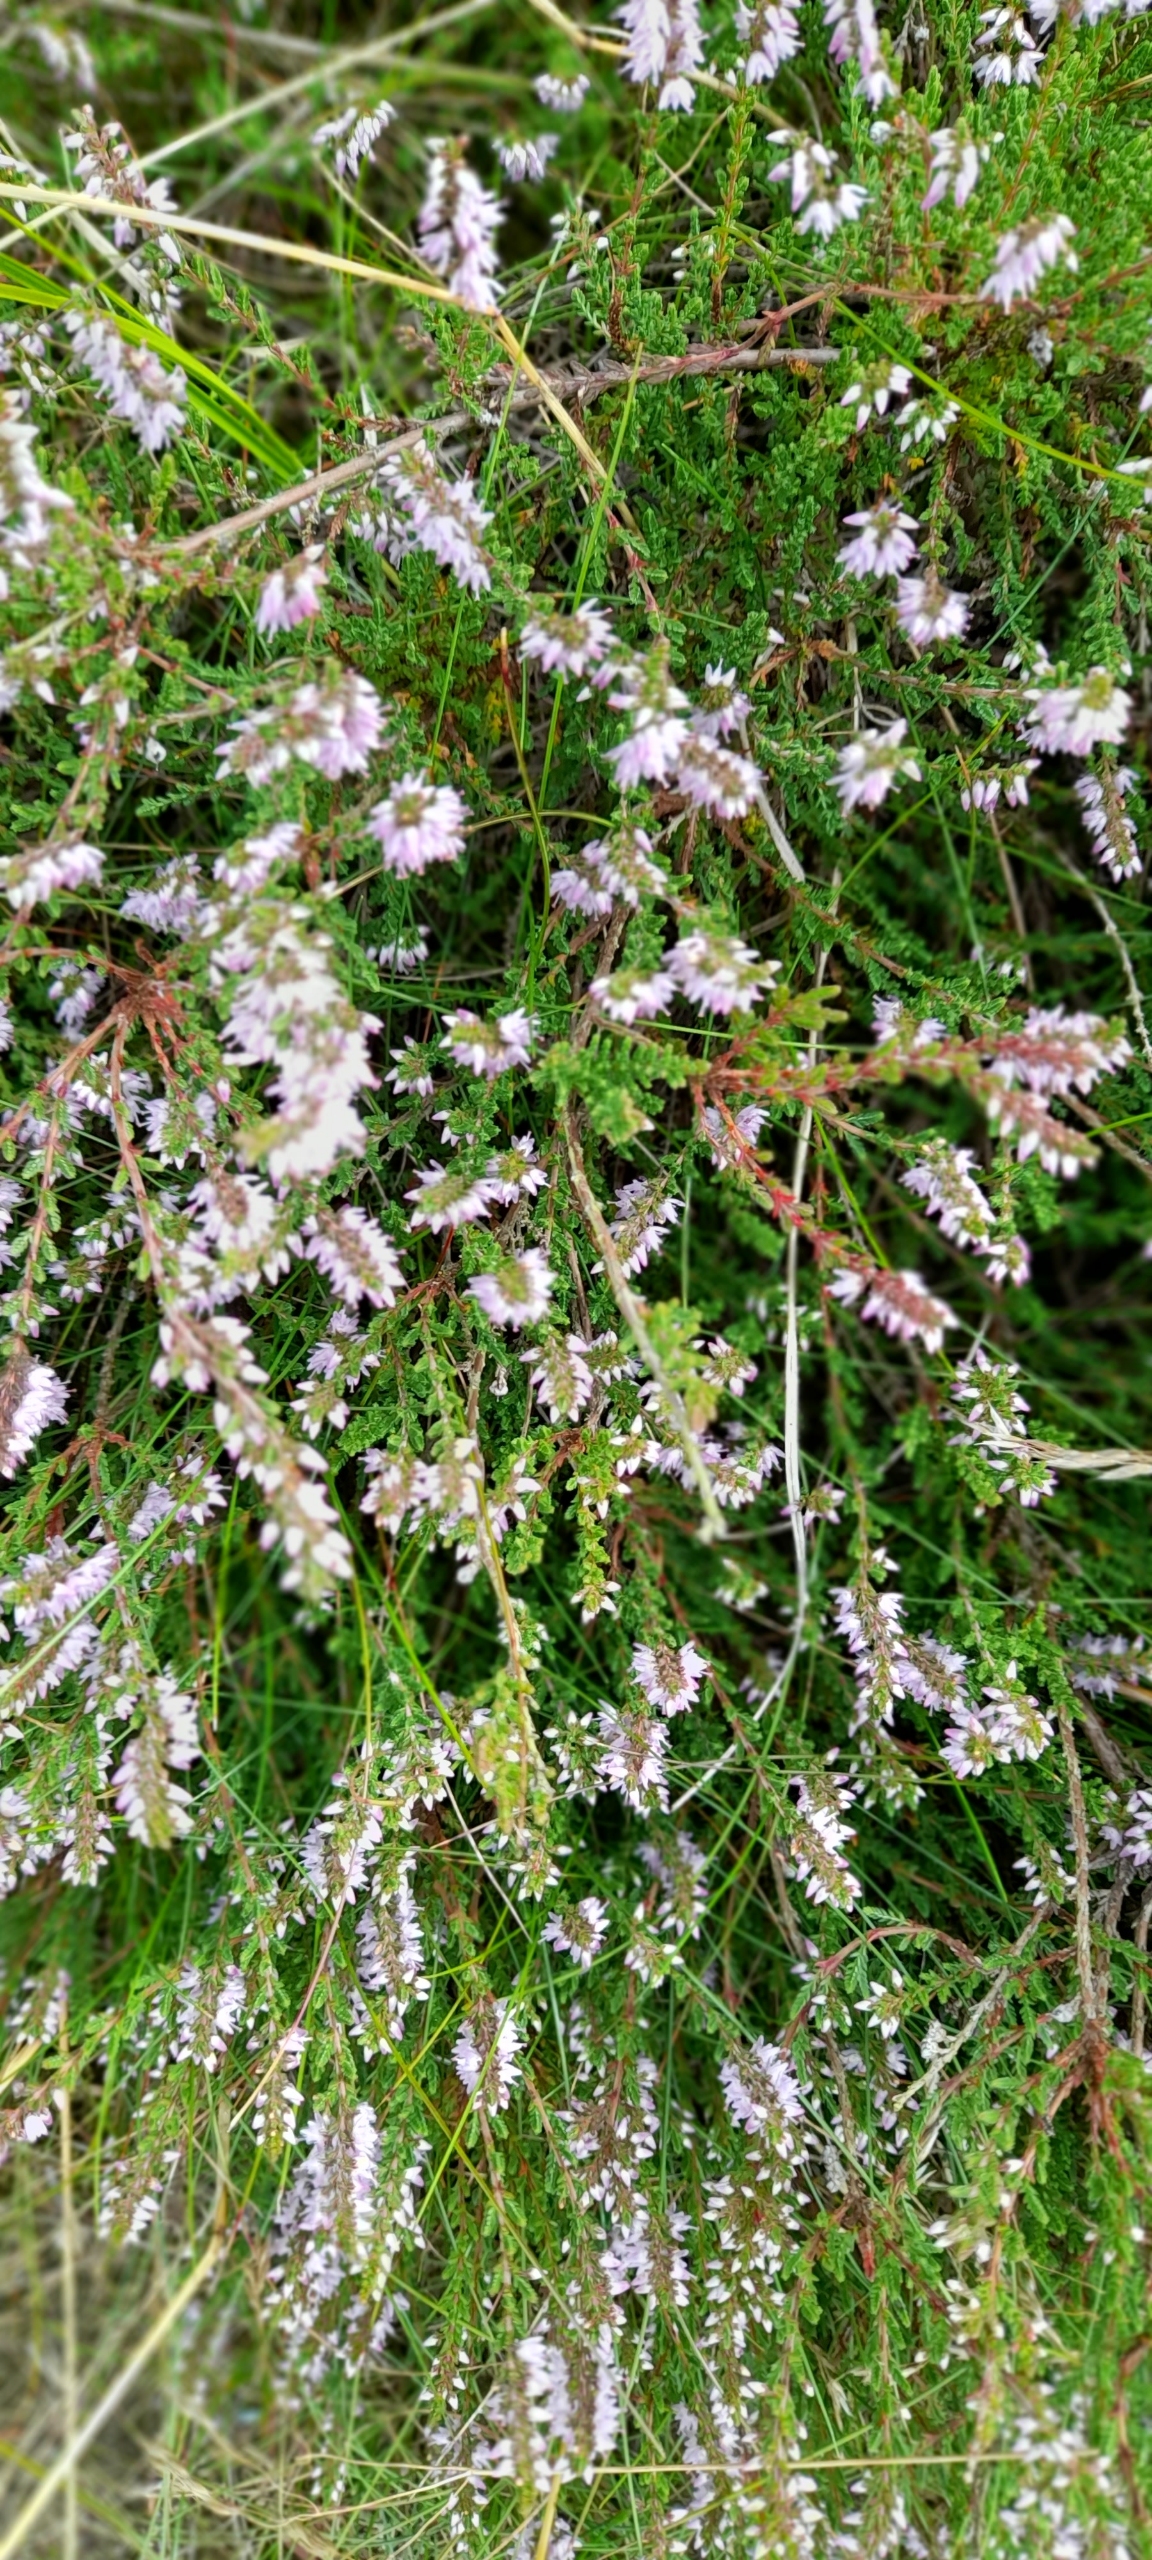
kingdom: Plantae
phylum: Tracheophyta
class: Magnoliopsida
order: Ericales
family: Ericaceae
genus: Calluna
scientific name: Calluna vulgaris
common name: Hedelyng
